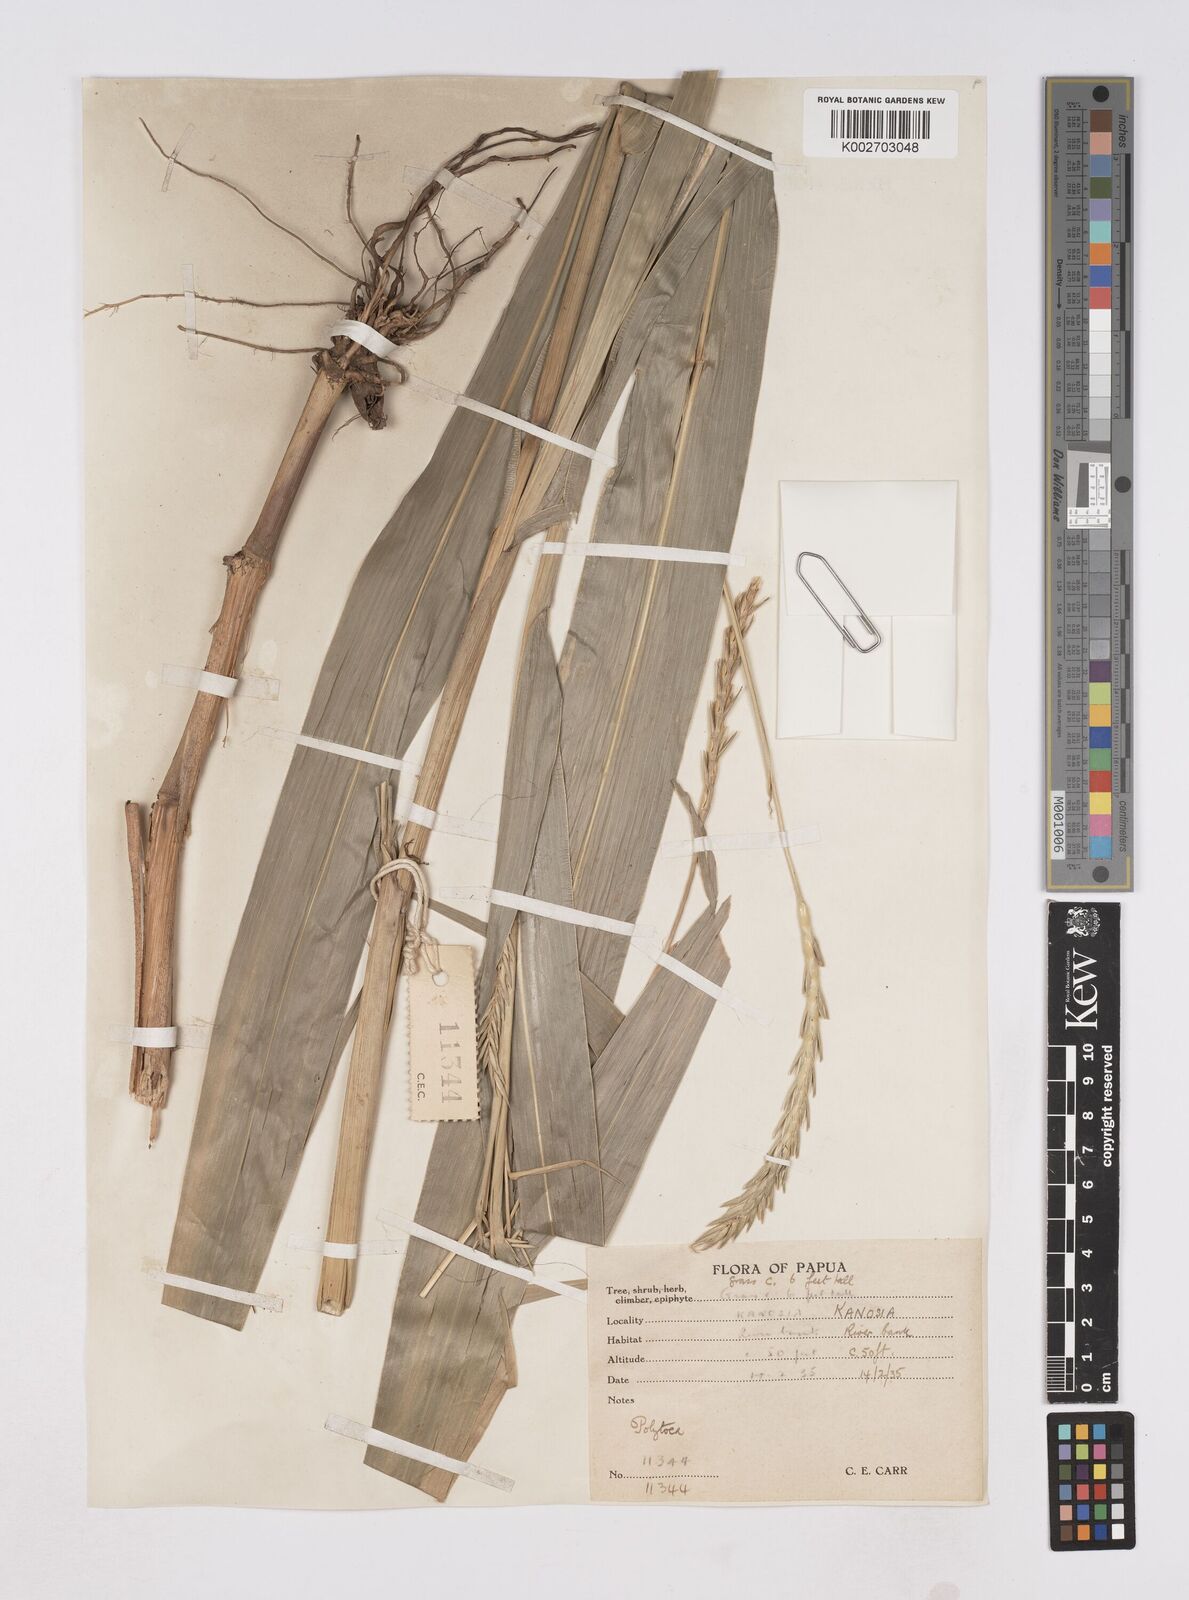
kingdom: Plantae
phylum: Tracheophyta
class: Liliopsida
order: Poales
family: Poaceae
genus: Polytoca
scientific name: Polytoca macrophylla
